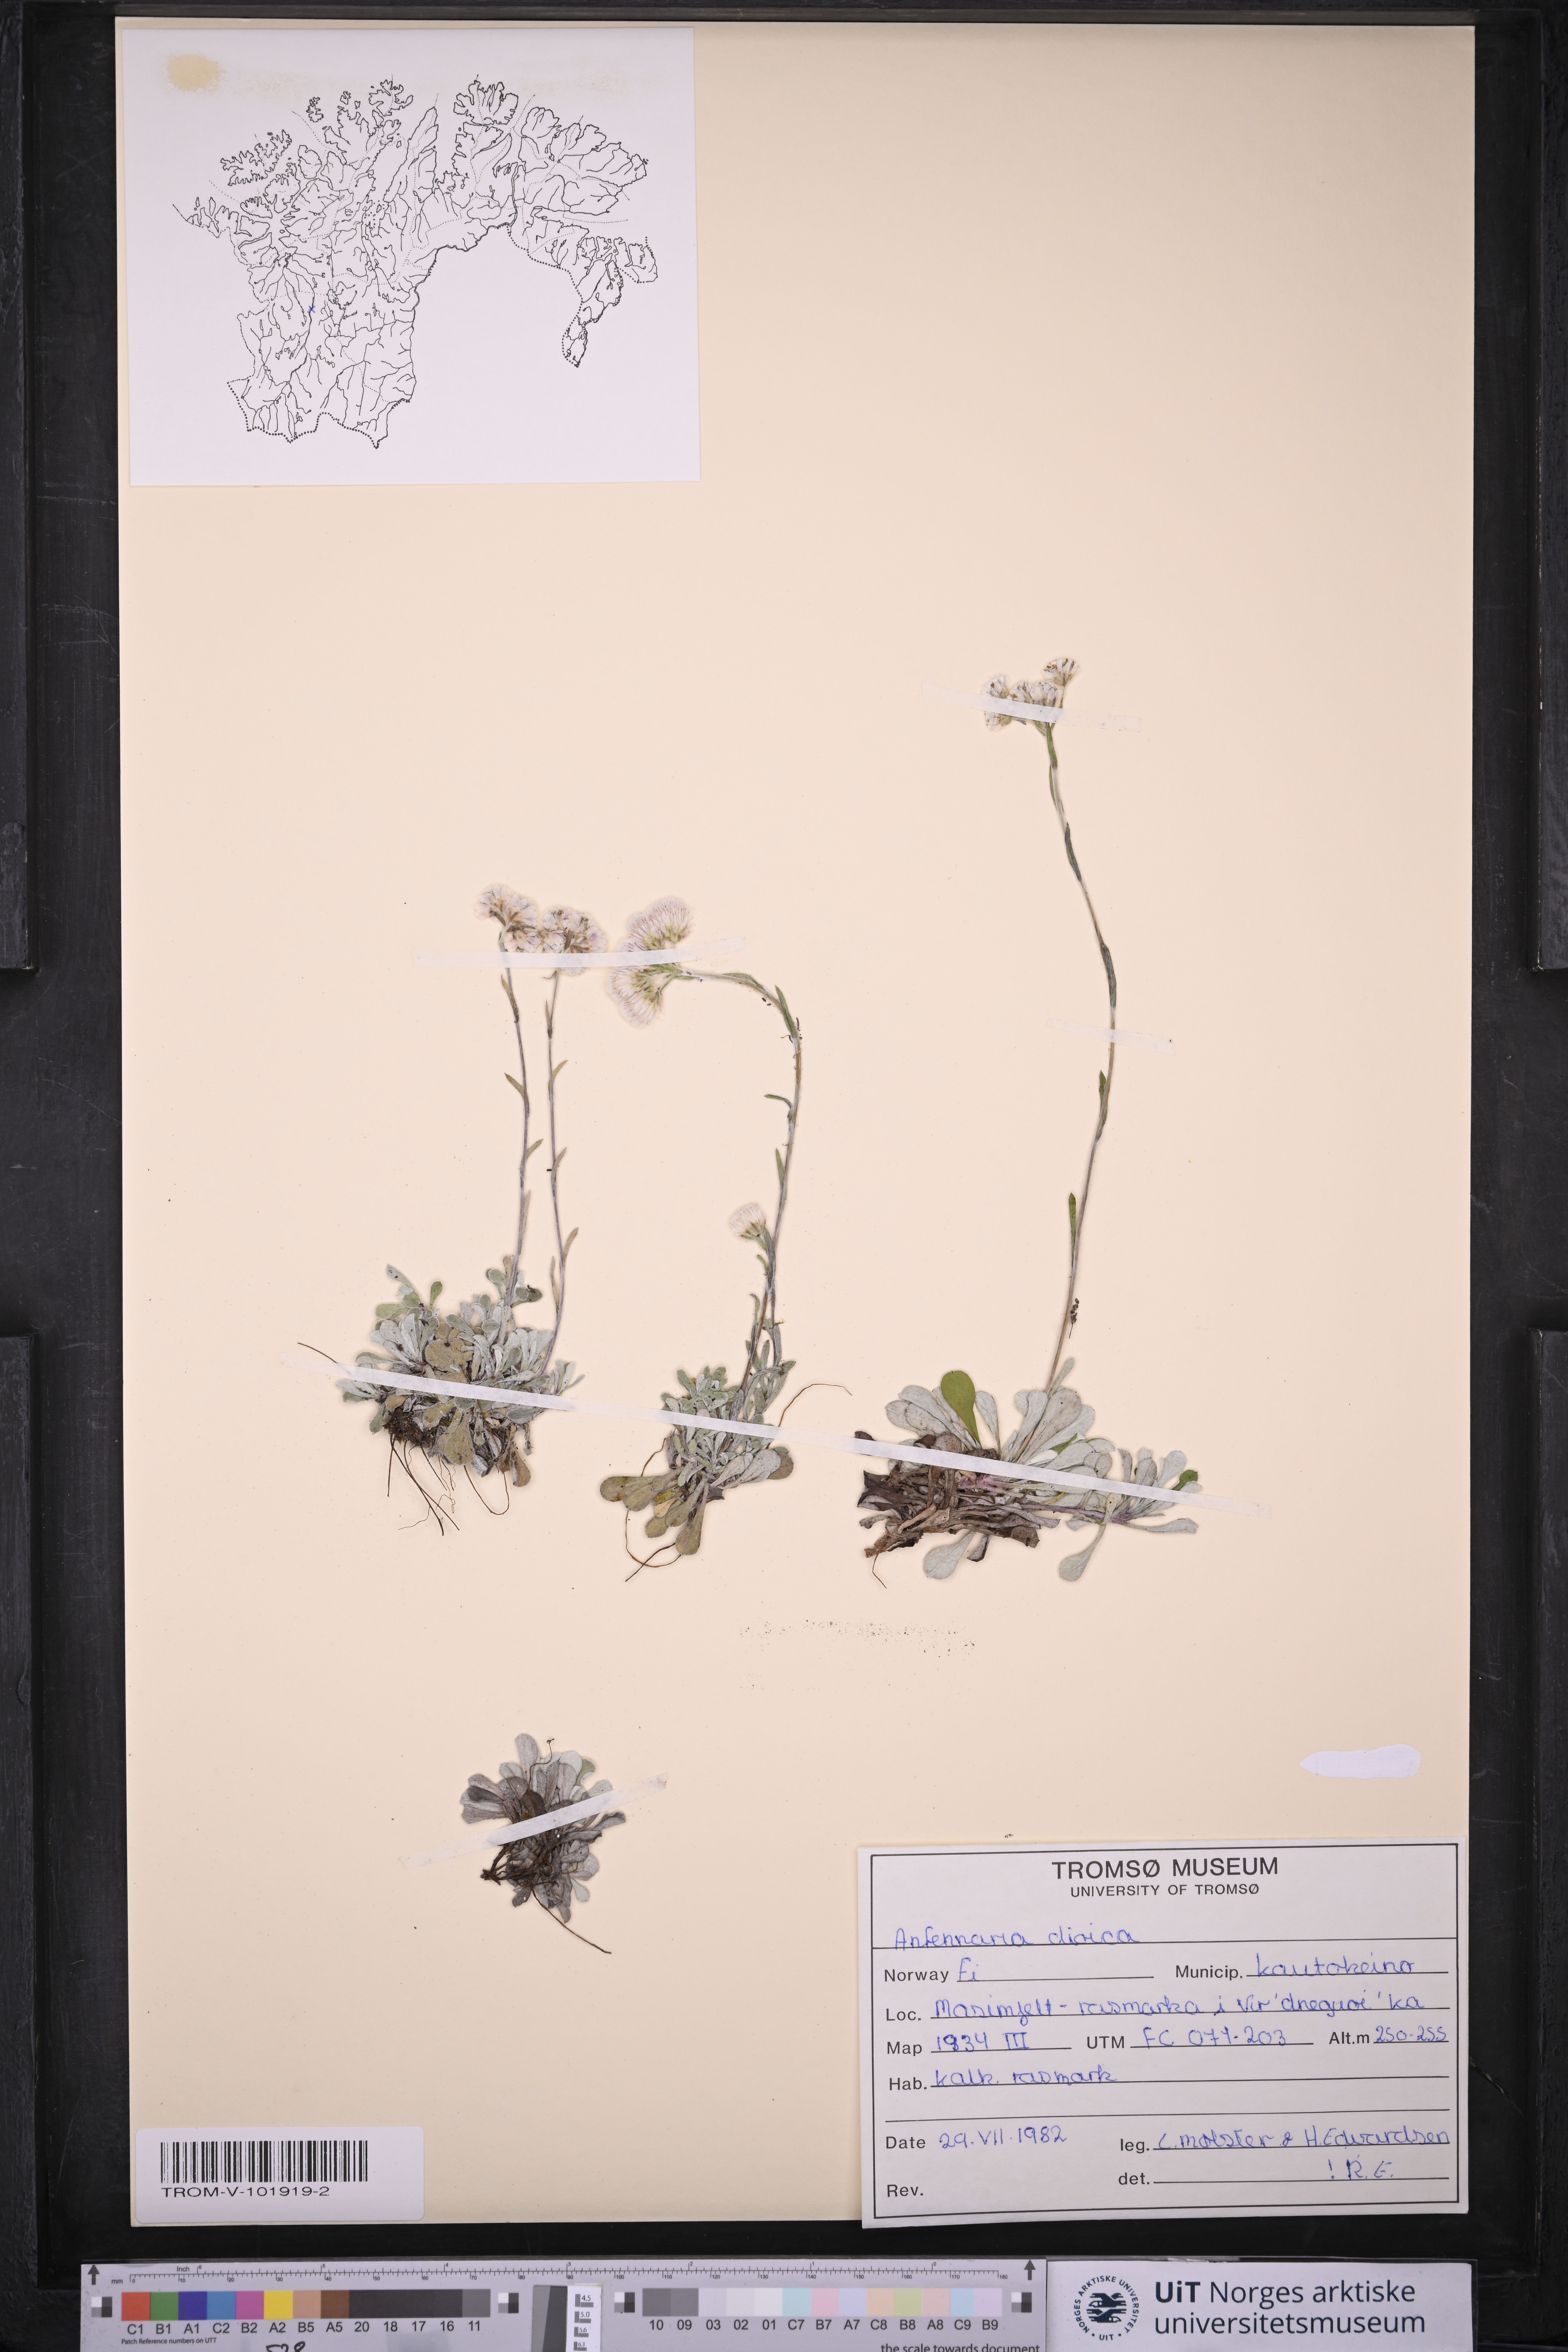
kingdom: Plantae
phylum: Tracheophyta
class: Magnoliopsida
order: Asterales
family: Asteraceae
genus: Antennaria
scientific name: Antennaria dioica
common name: Mountain everlasting
